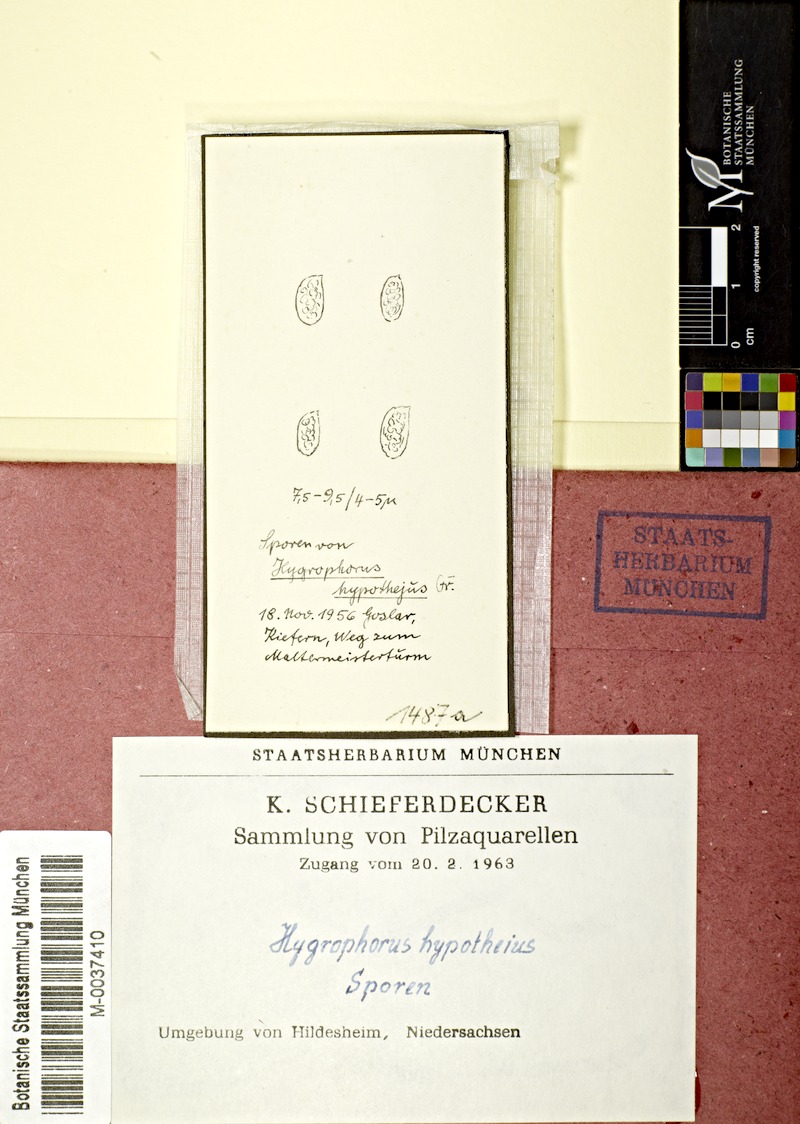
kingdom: Fungi
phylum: Basidiomycota
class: Agaricomycetes
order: Agaricales
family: Hygrophoraceae
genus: Hygrophorus
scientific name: Hygrophorus hypothejus
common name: Herald of winter
